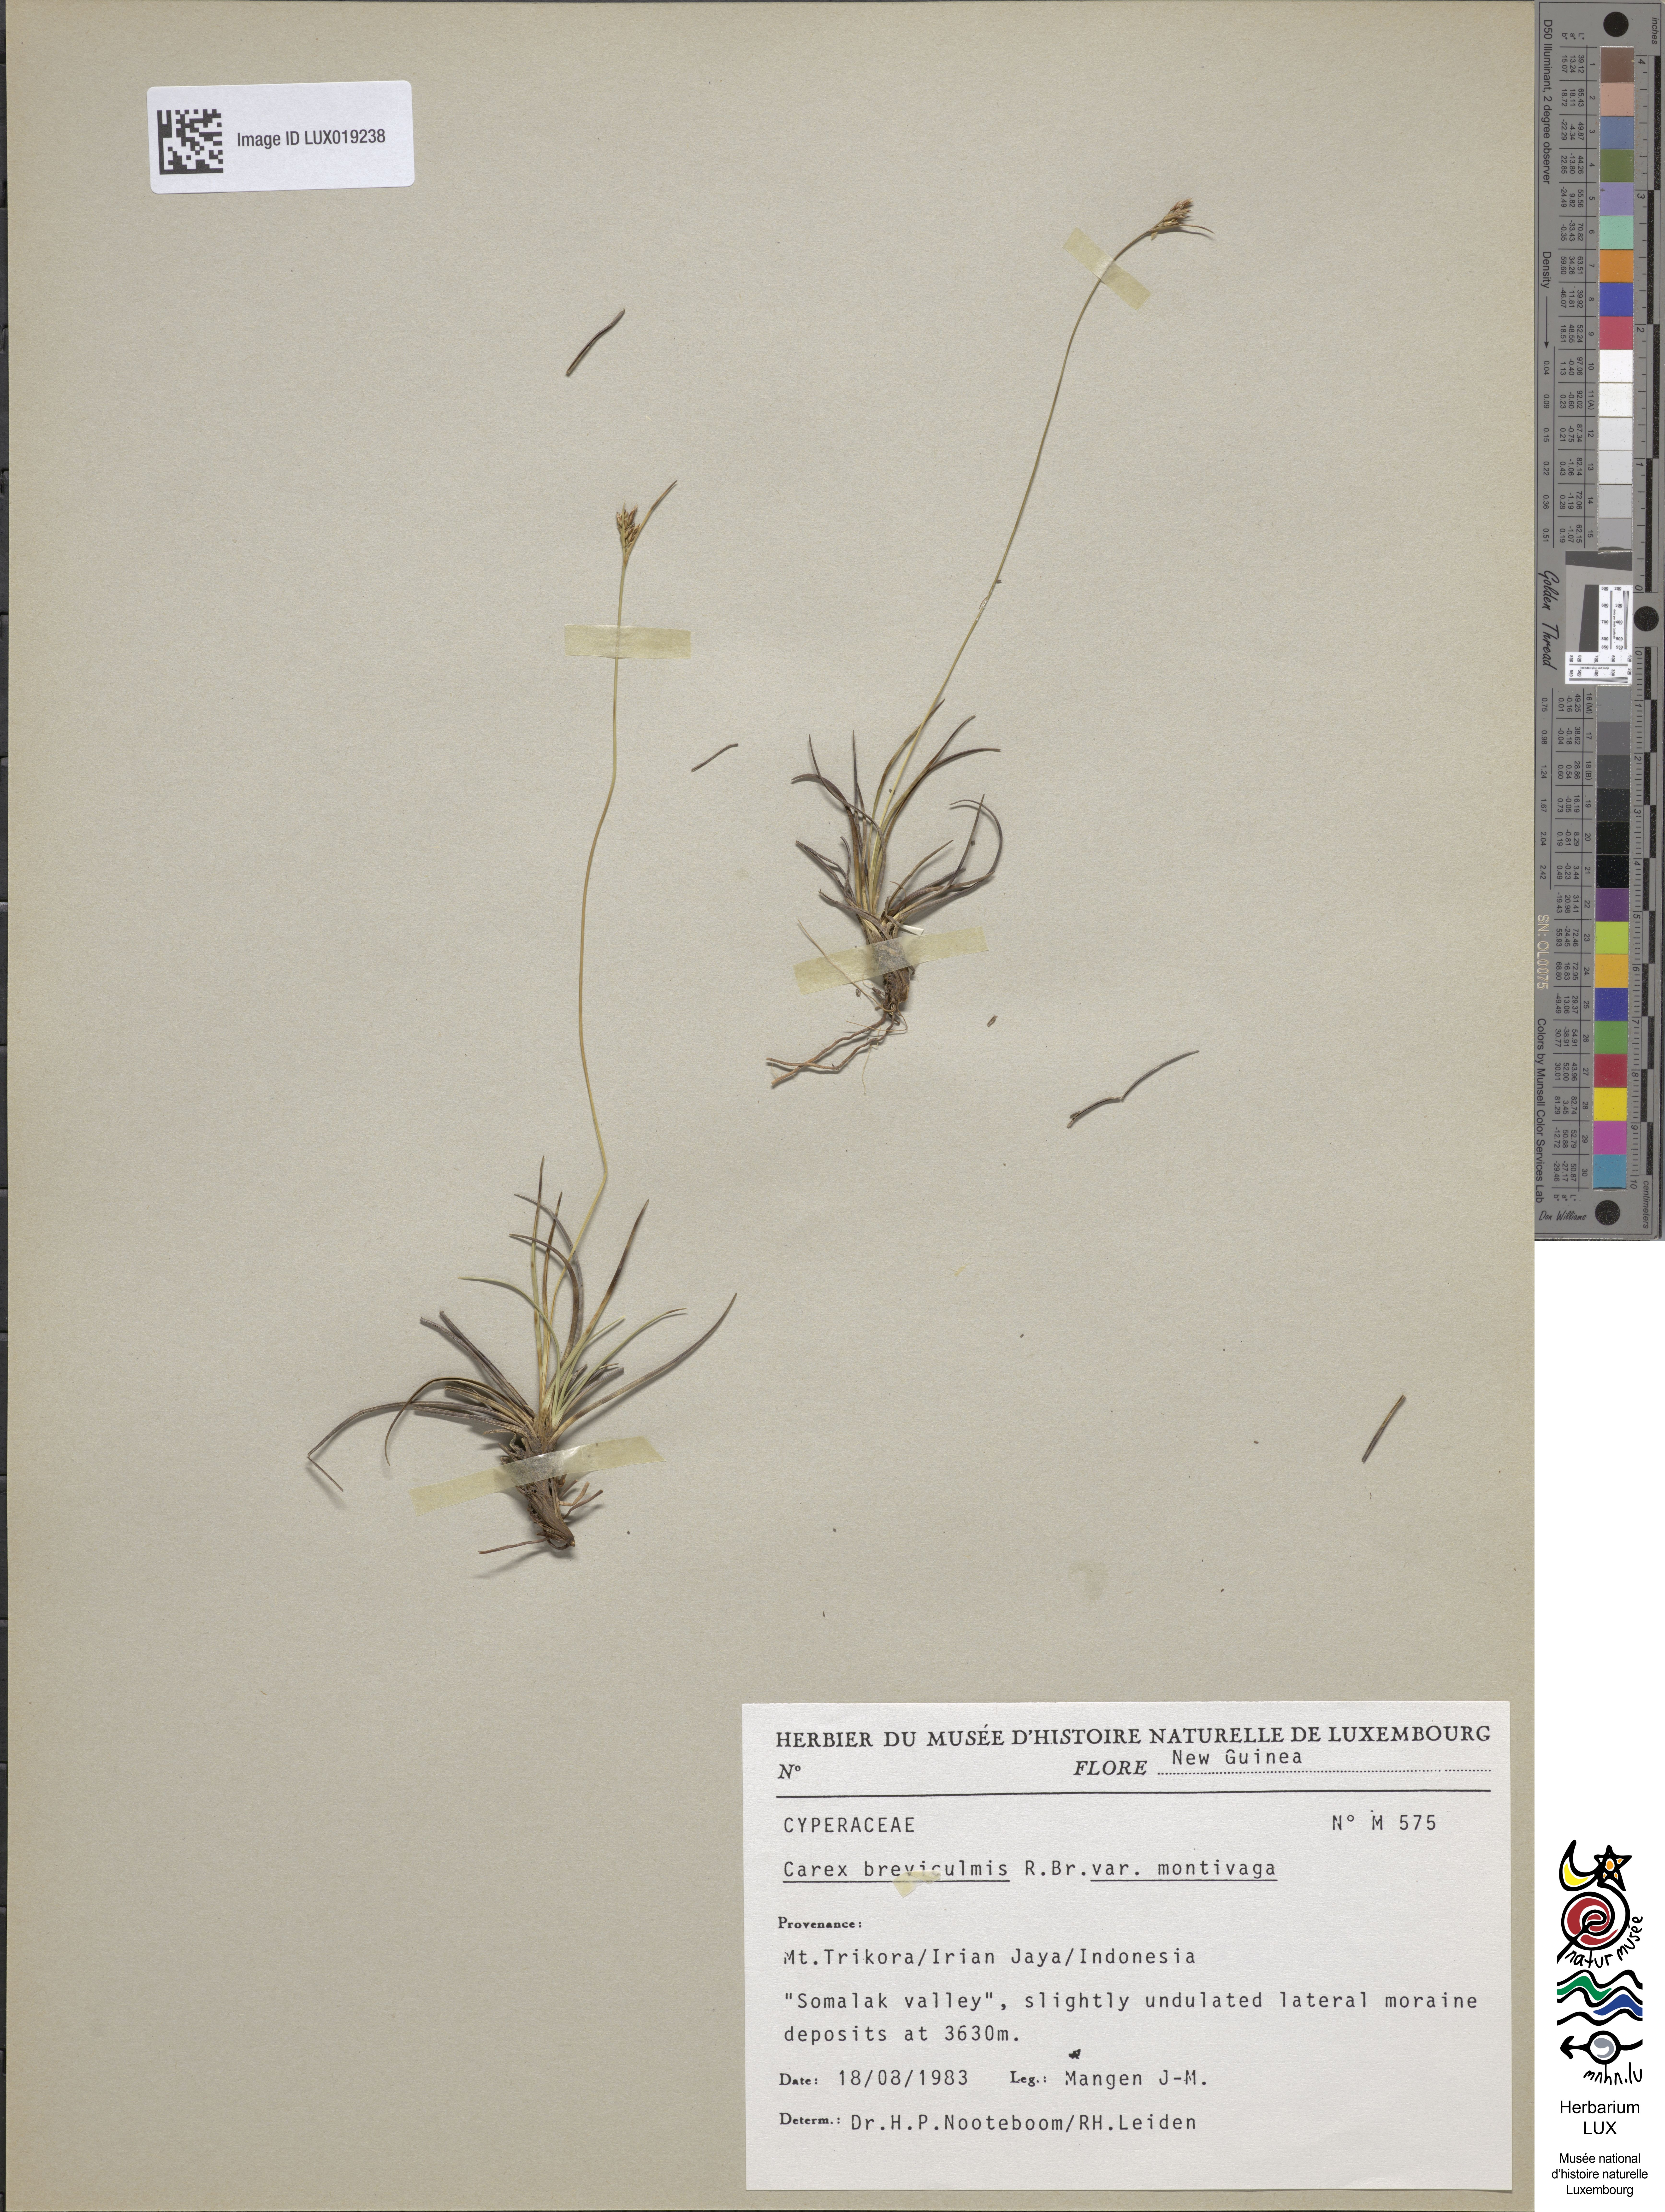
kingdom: Plantae
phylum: Tracheophyta
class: Liliopsida
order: Poales
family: Cyperaceae
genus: Carex
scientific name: Carex breviculmis
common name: Asian shortstem sedge
